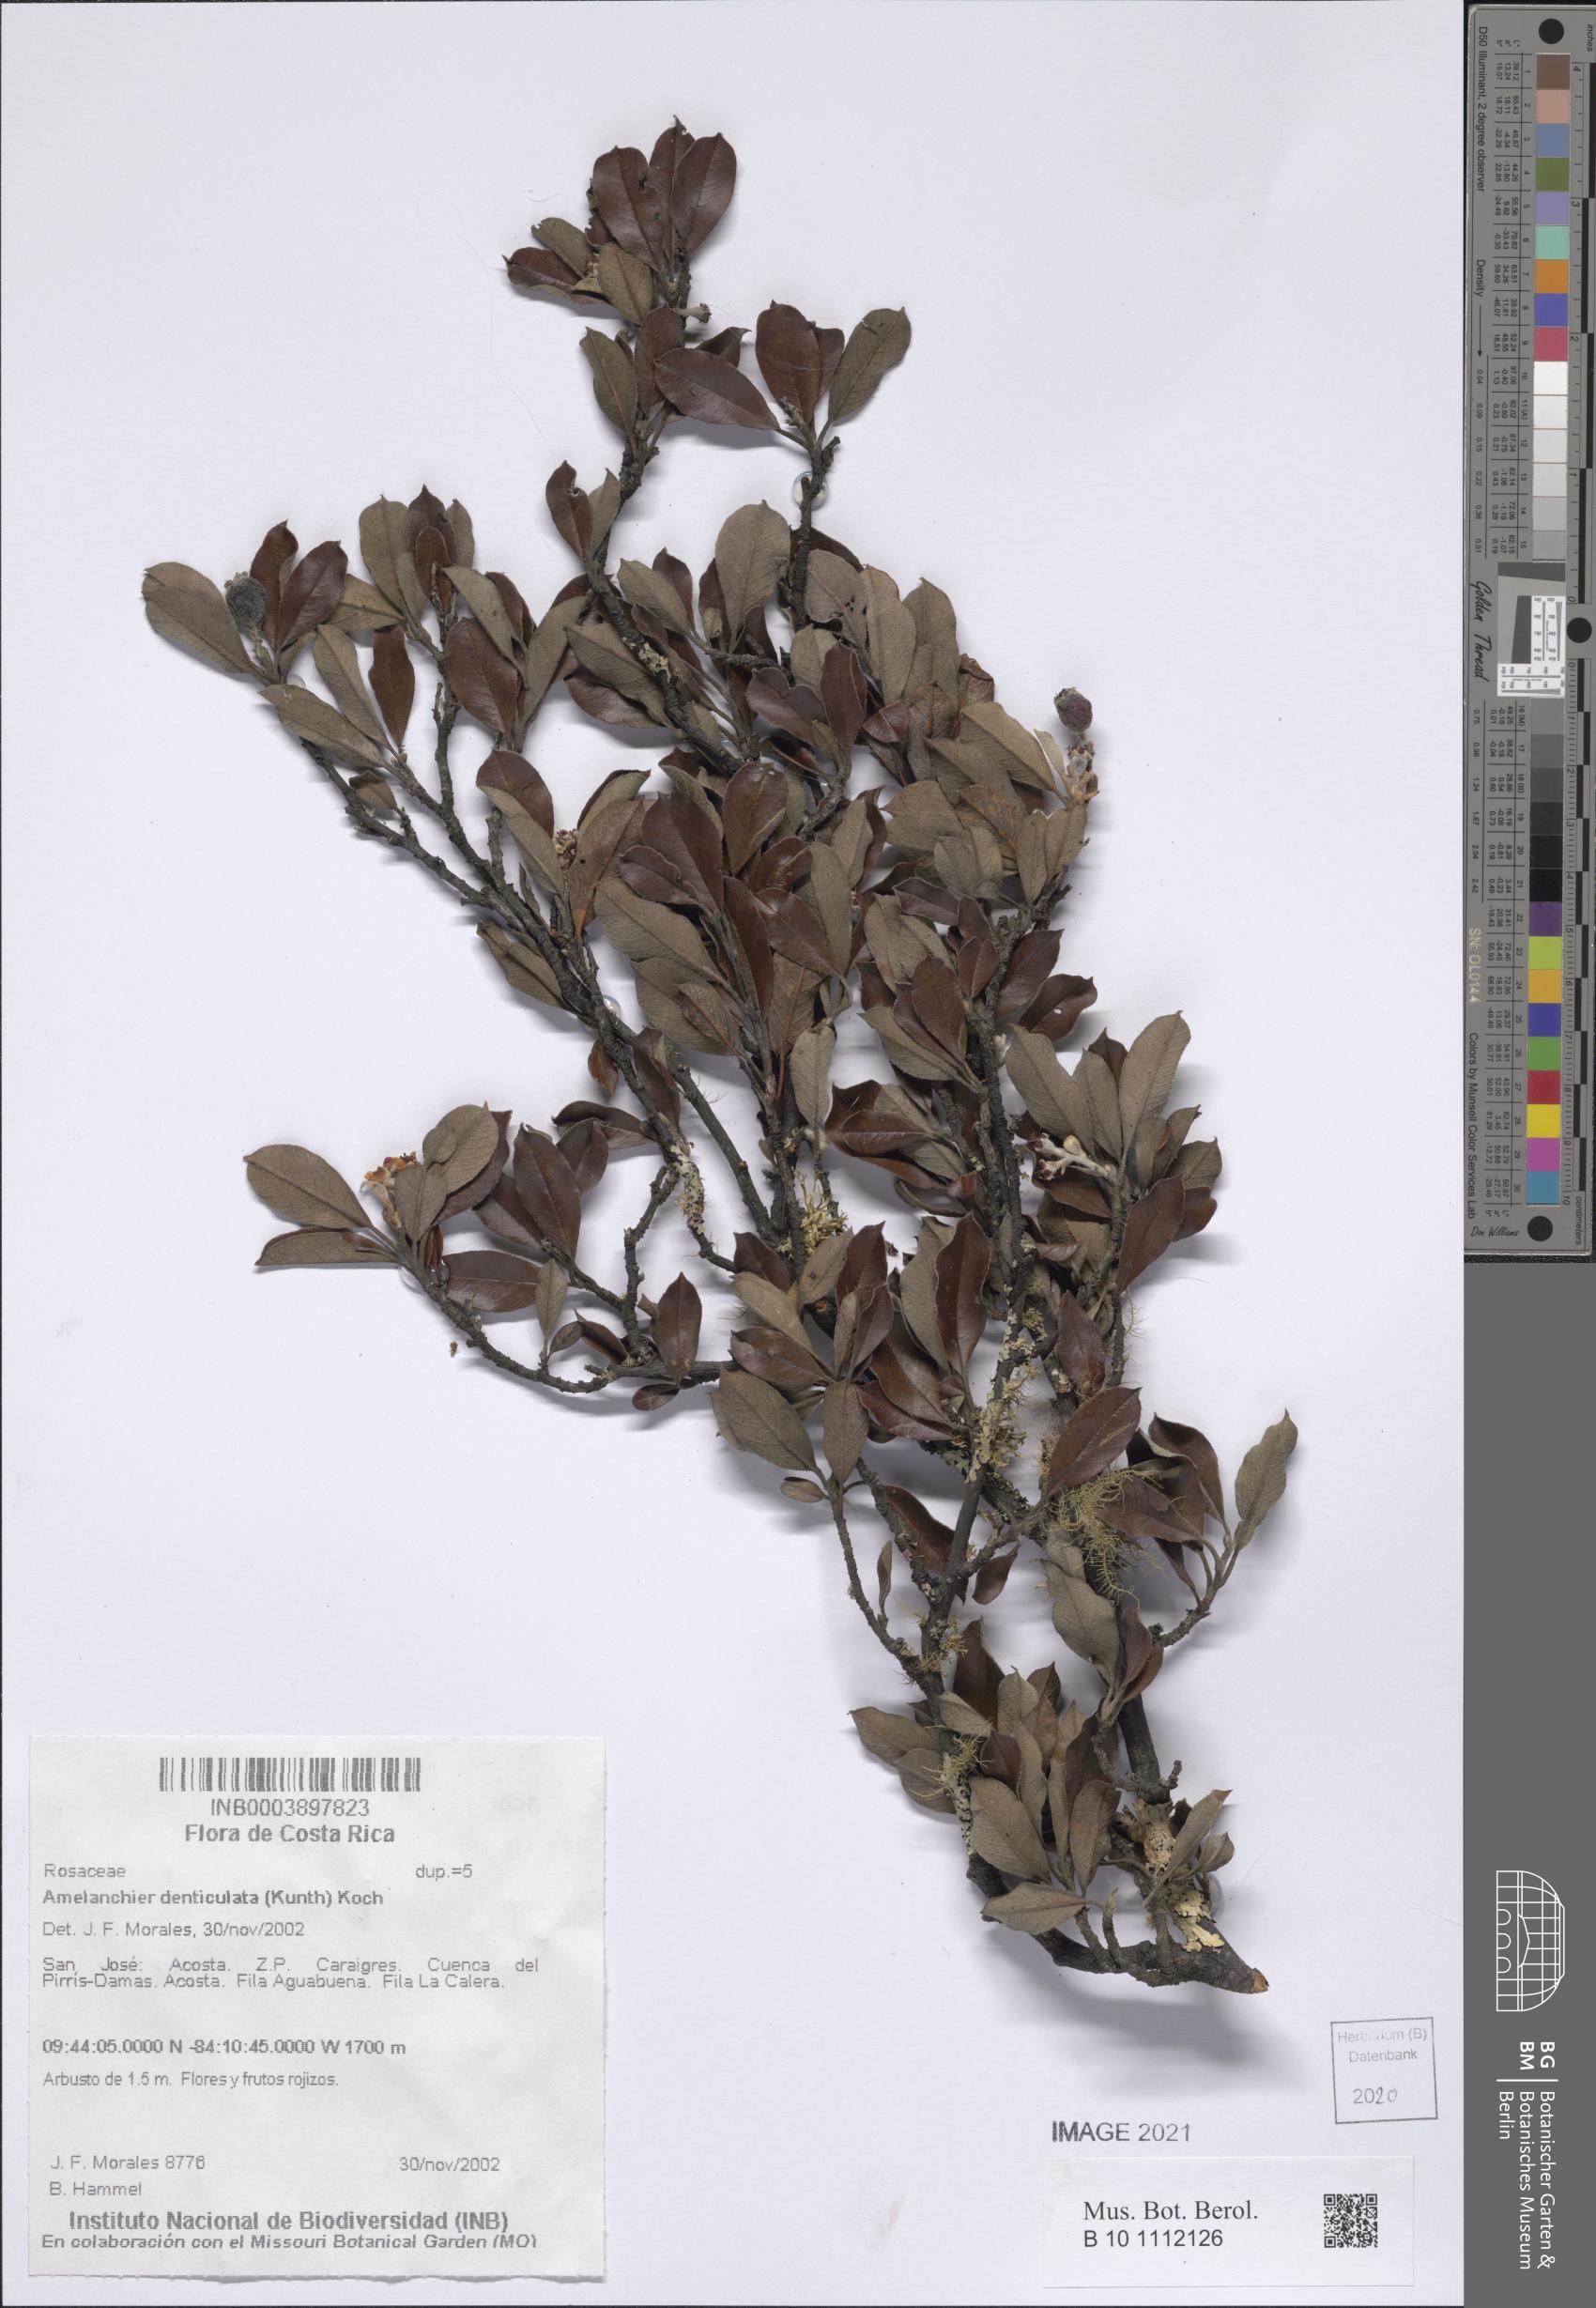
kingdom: Plantae
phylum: Tracheophyta
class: Magnoliopsida
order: Rosales
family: Rosaceae
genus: Malacomeles
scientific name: Malacomeles denticulata
